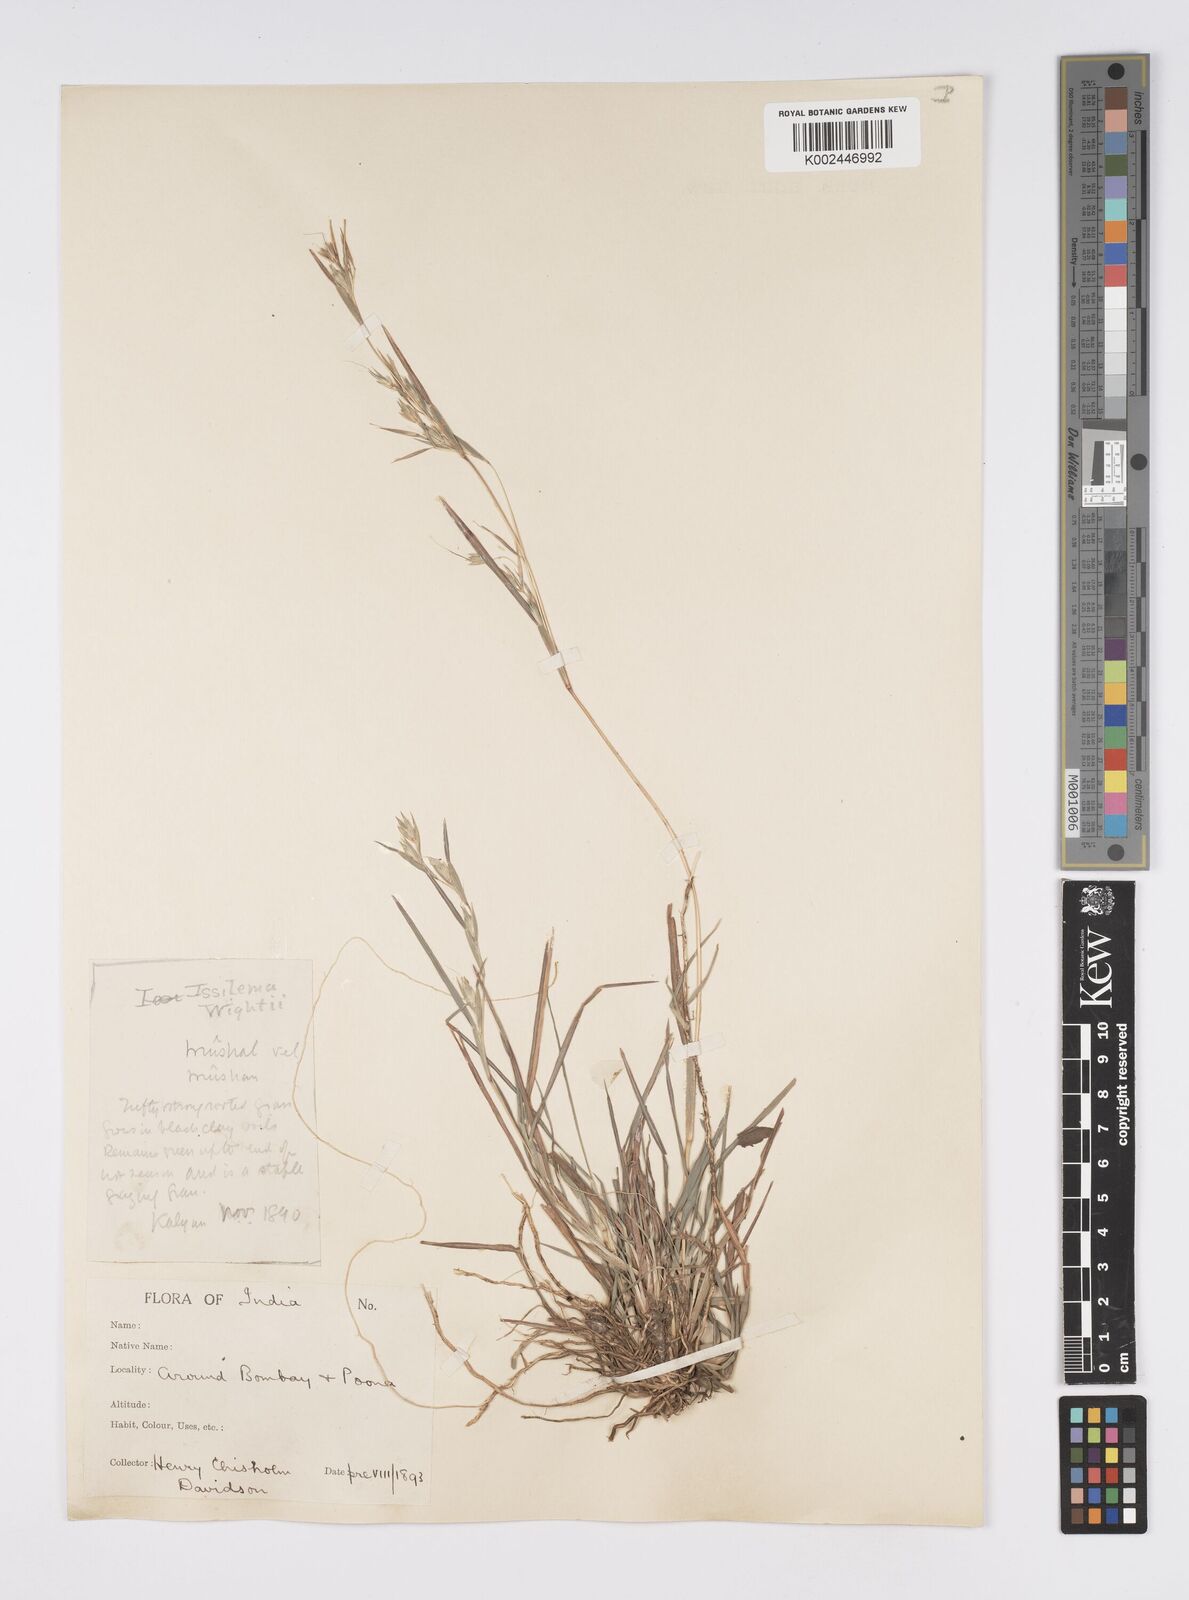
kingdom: Plantae
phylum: Tracheophyta
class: Liliopsida
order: Poales
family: Poaceae
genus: Iseilema
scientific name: Iseilema prostratum
